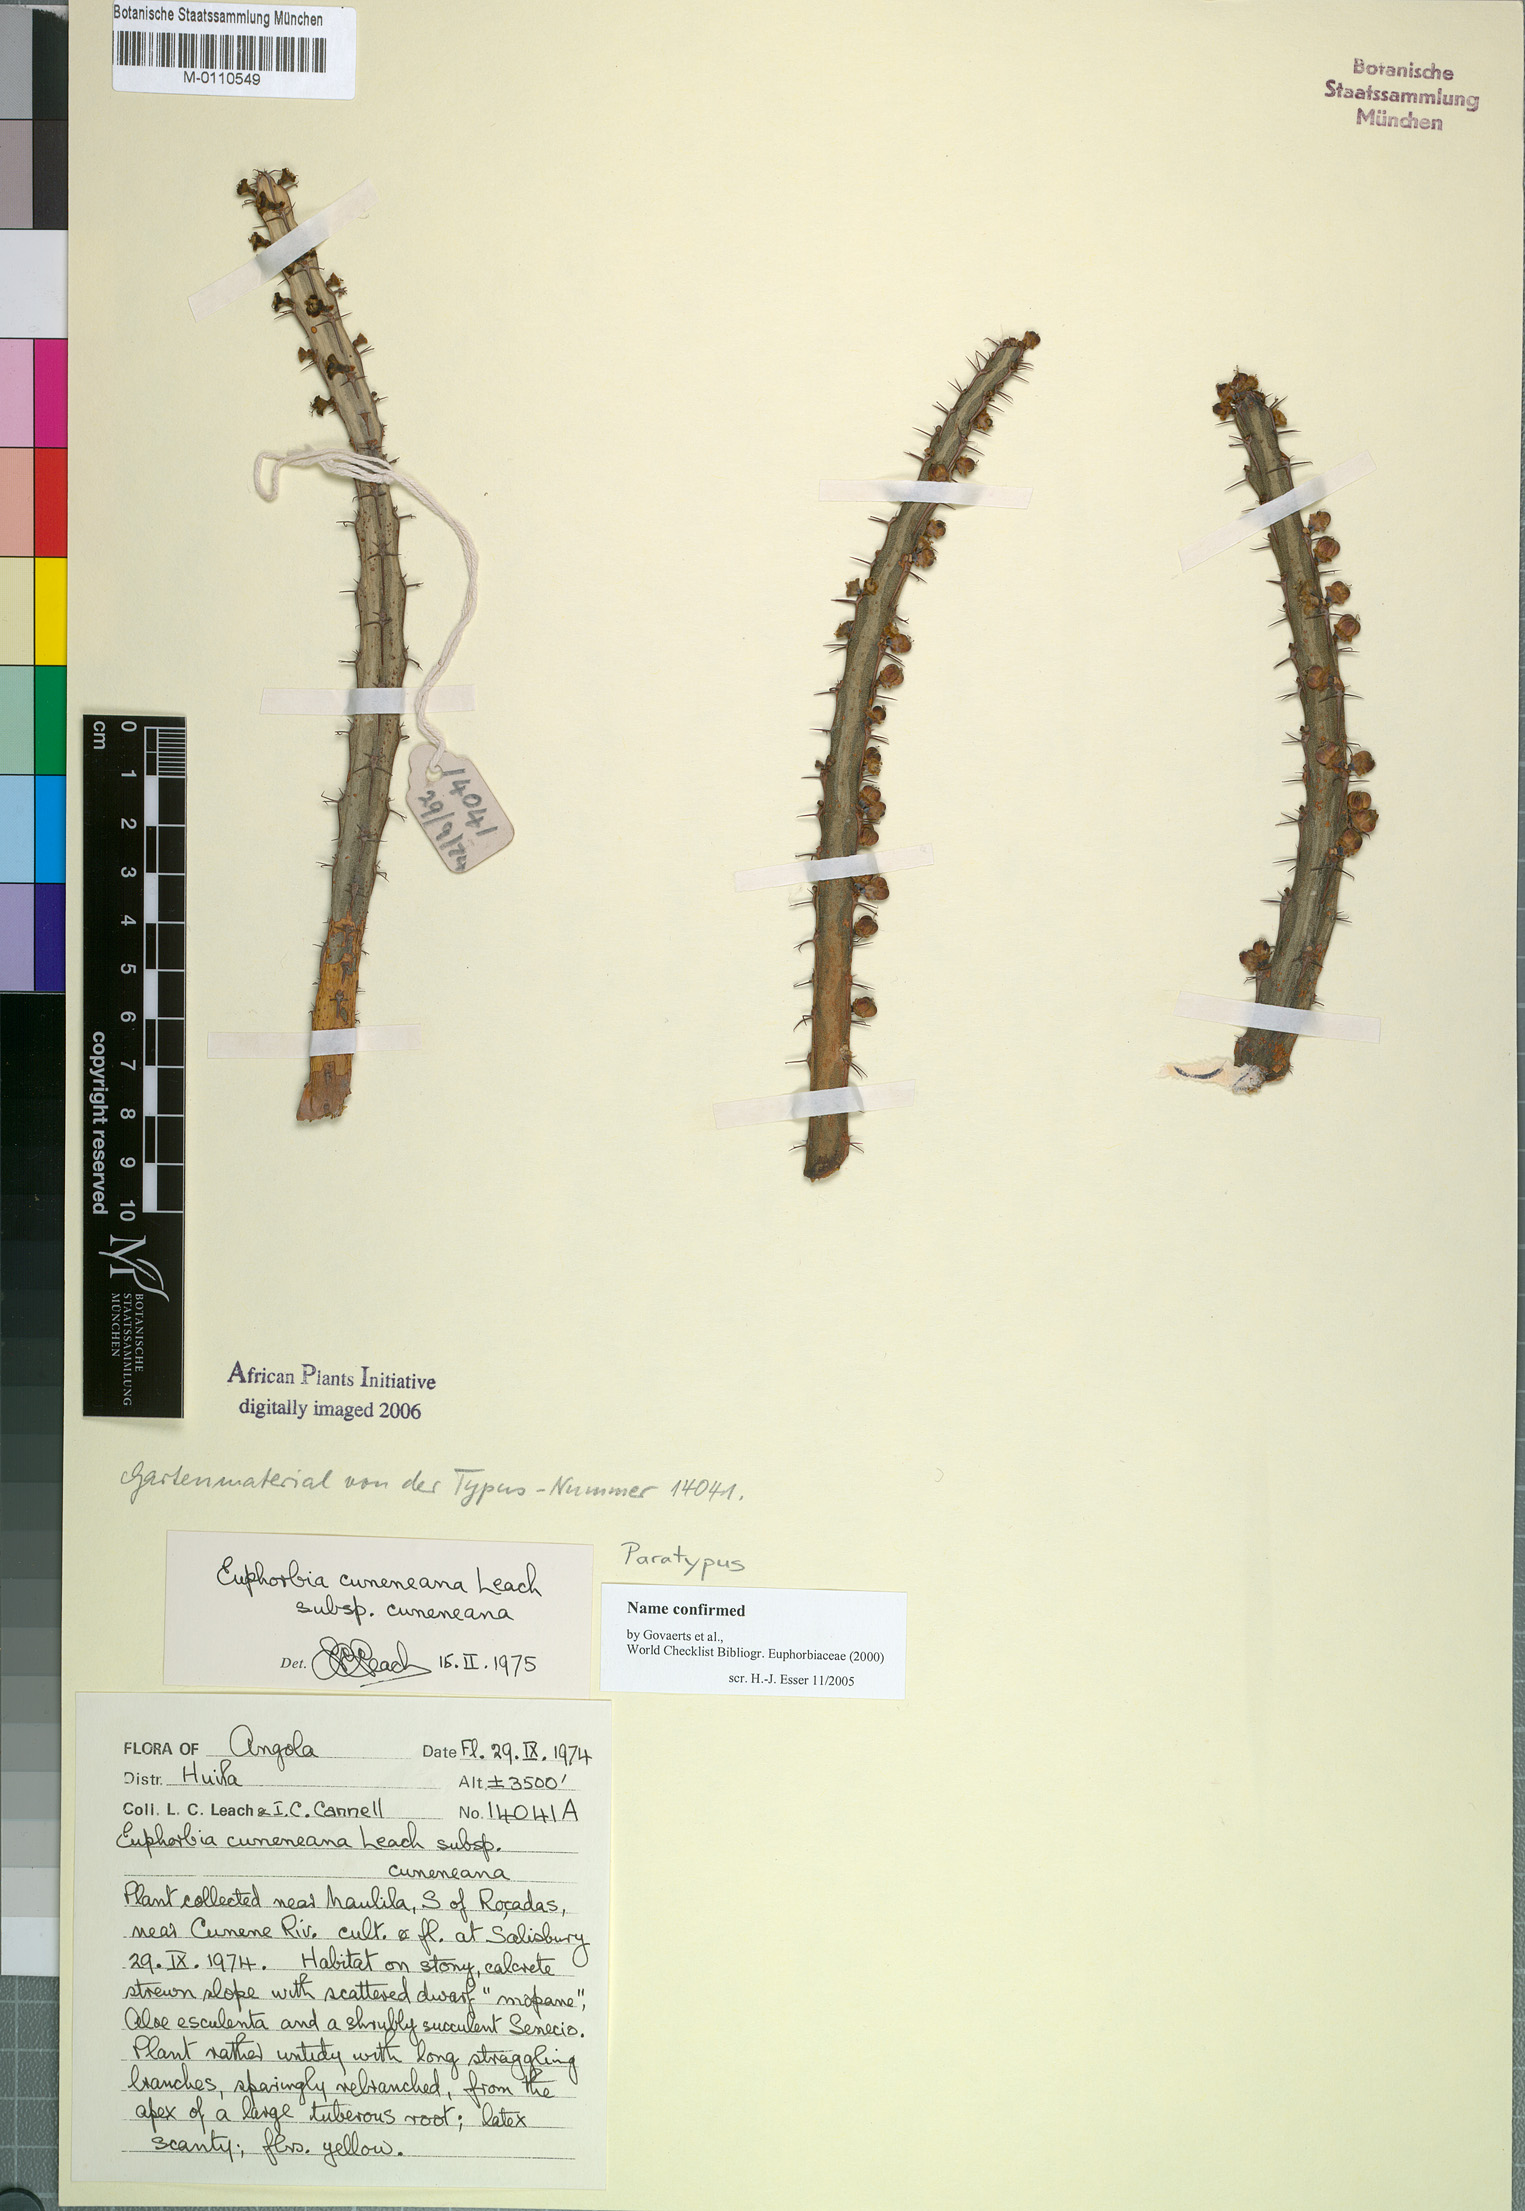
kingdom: Plantae
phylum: Tracheophyta
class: Magnoliopsida
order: Malpighiales
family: Euphorbiaceae
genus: Euphorbia
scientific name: Euphorbia cuneneana
